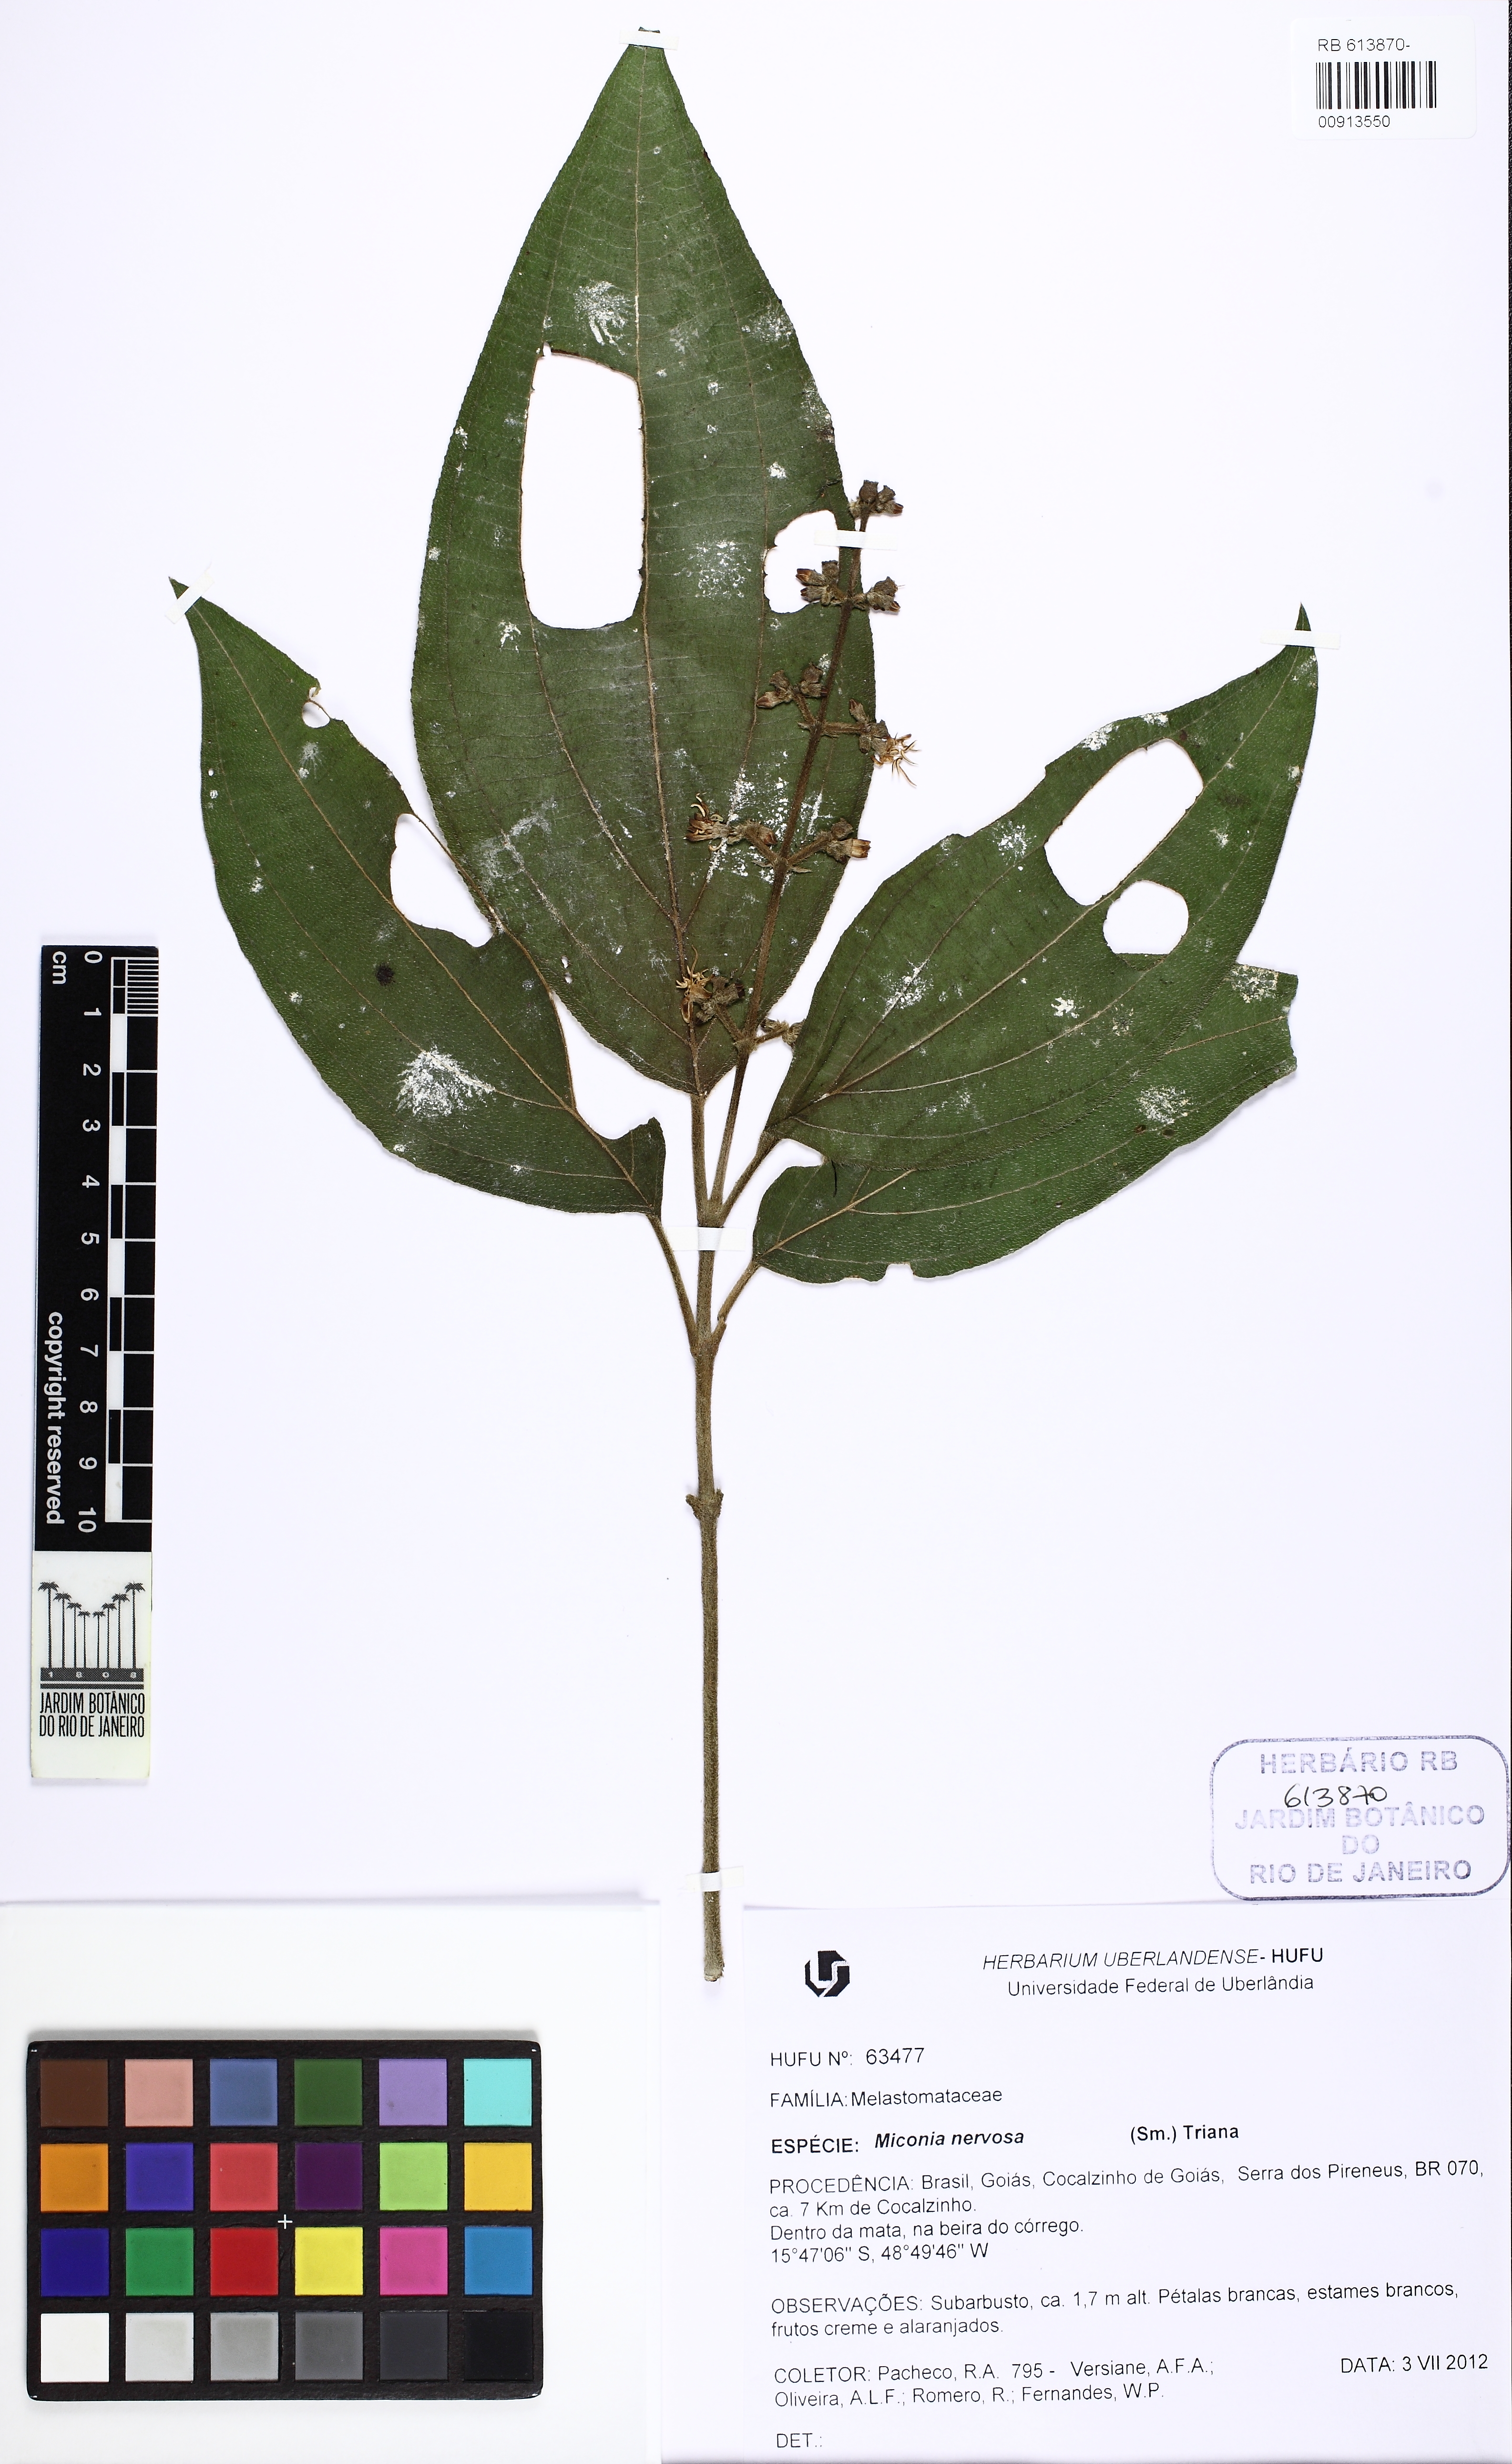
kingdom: Plantae
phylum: Tracheophyta
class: Magnoliopsida
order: Myrtales
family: Melastomataceae
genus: Miconia
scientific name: Miconia nervosa
